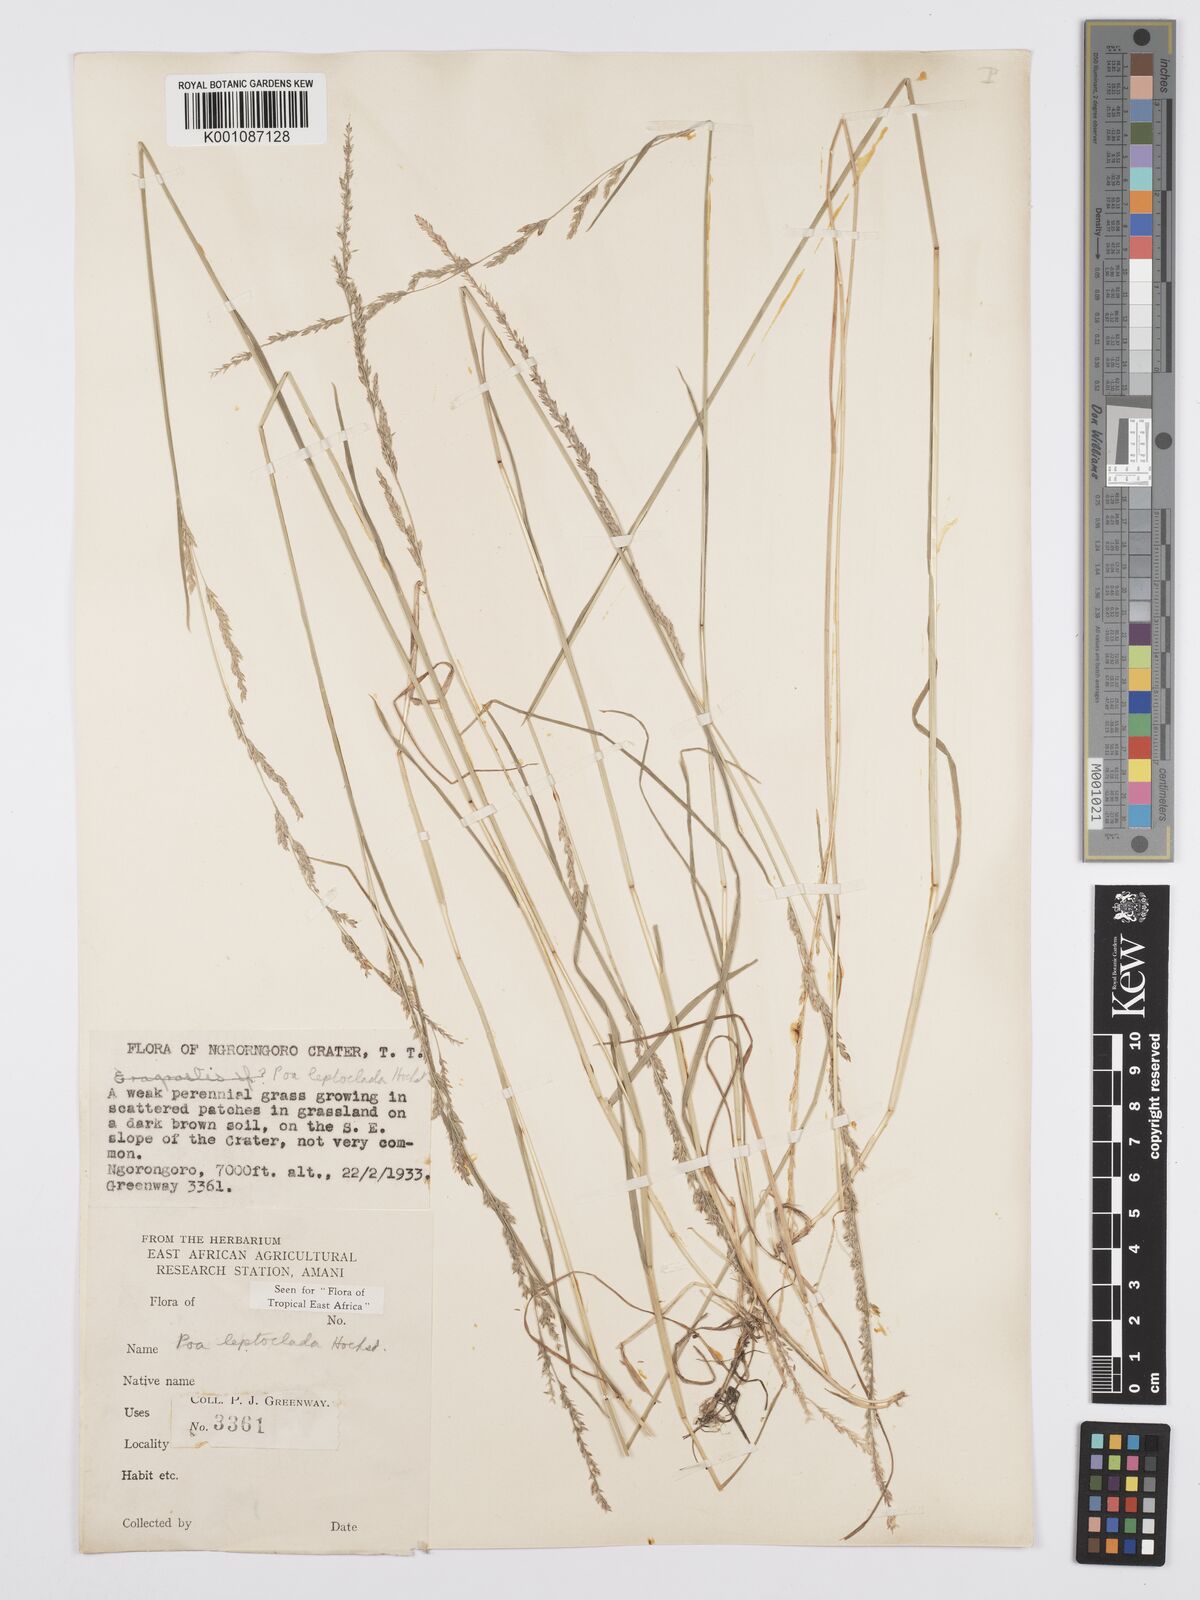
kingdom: Plantae
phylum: Tracheophyta
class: Liliopsida
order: Poales
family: Poaceae
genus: Poa
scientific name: Poa leptoclada
